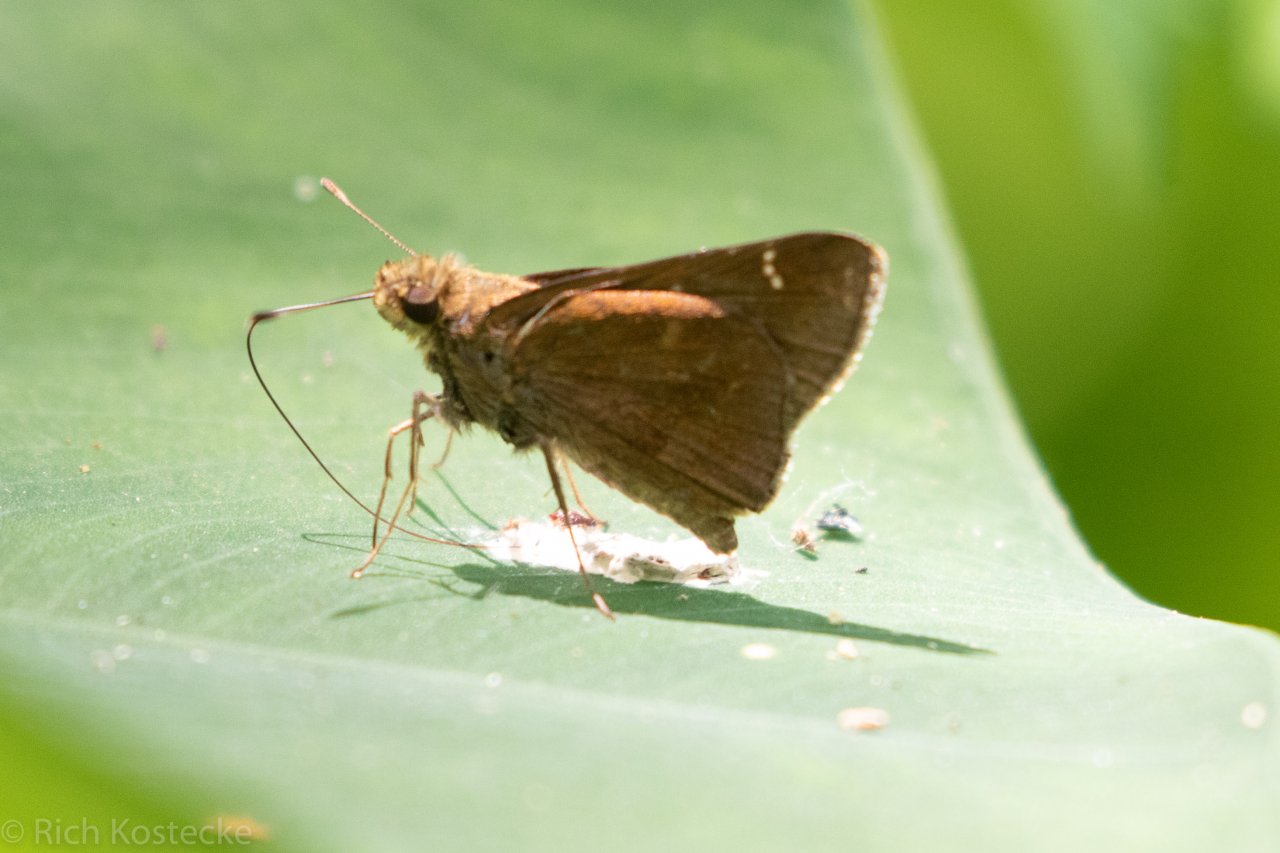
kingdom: Animalia
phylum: Arthropoda
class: Insecta
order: Lepidoptera
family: Hesperiidae
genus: Lerema
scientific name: Lerema accius
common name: Clouded Skipper
